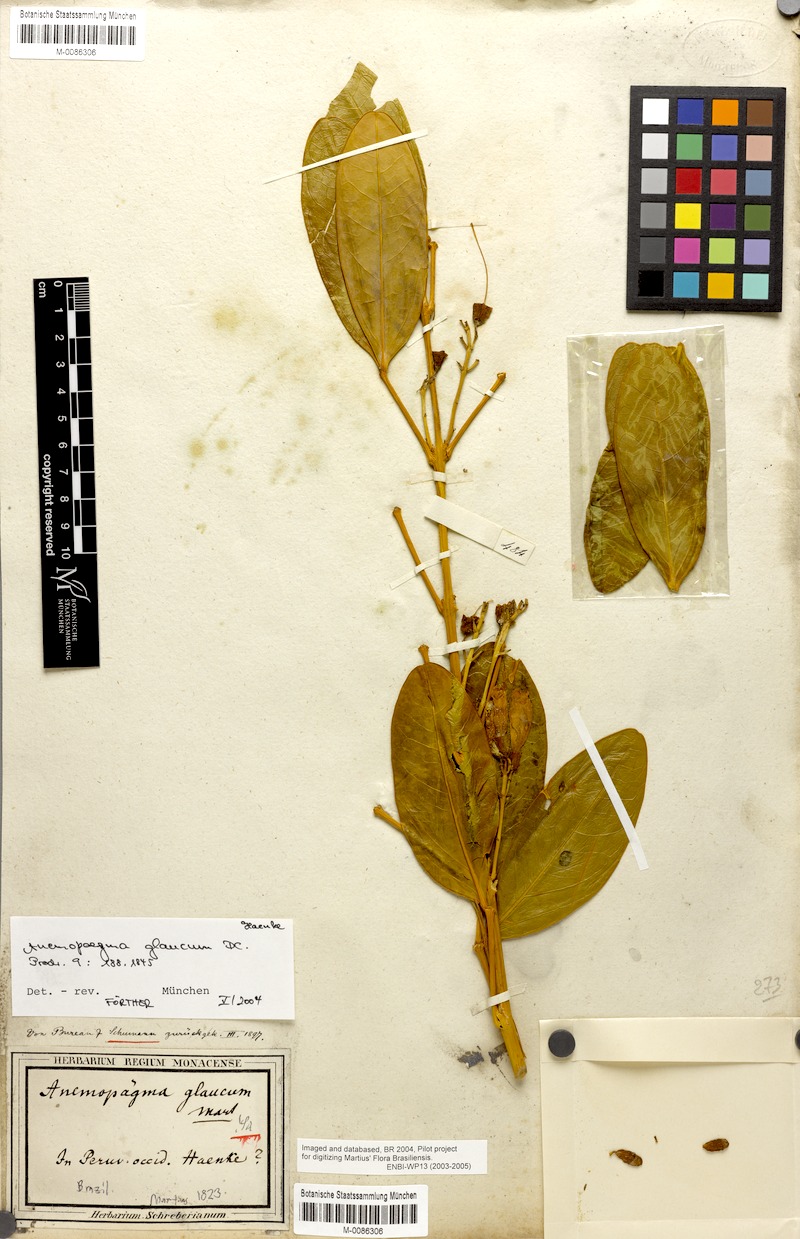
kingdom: Plantae
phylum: Tracheophyta
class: Magnoliopsida
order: Lamiales
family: Bignoniaceae
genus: Anemopaegma
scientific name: Anemopaegma glaucum
